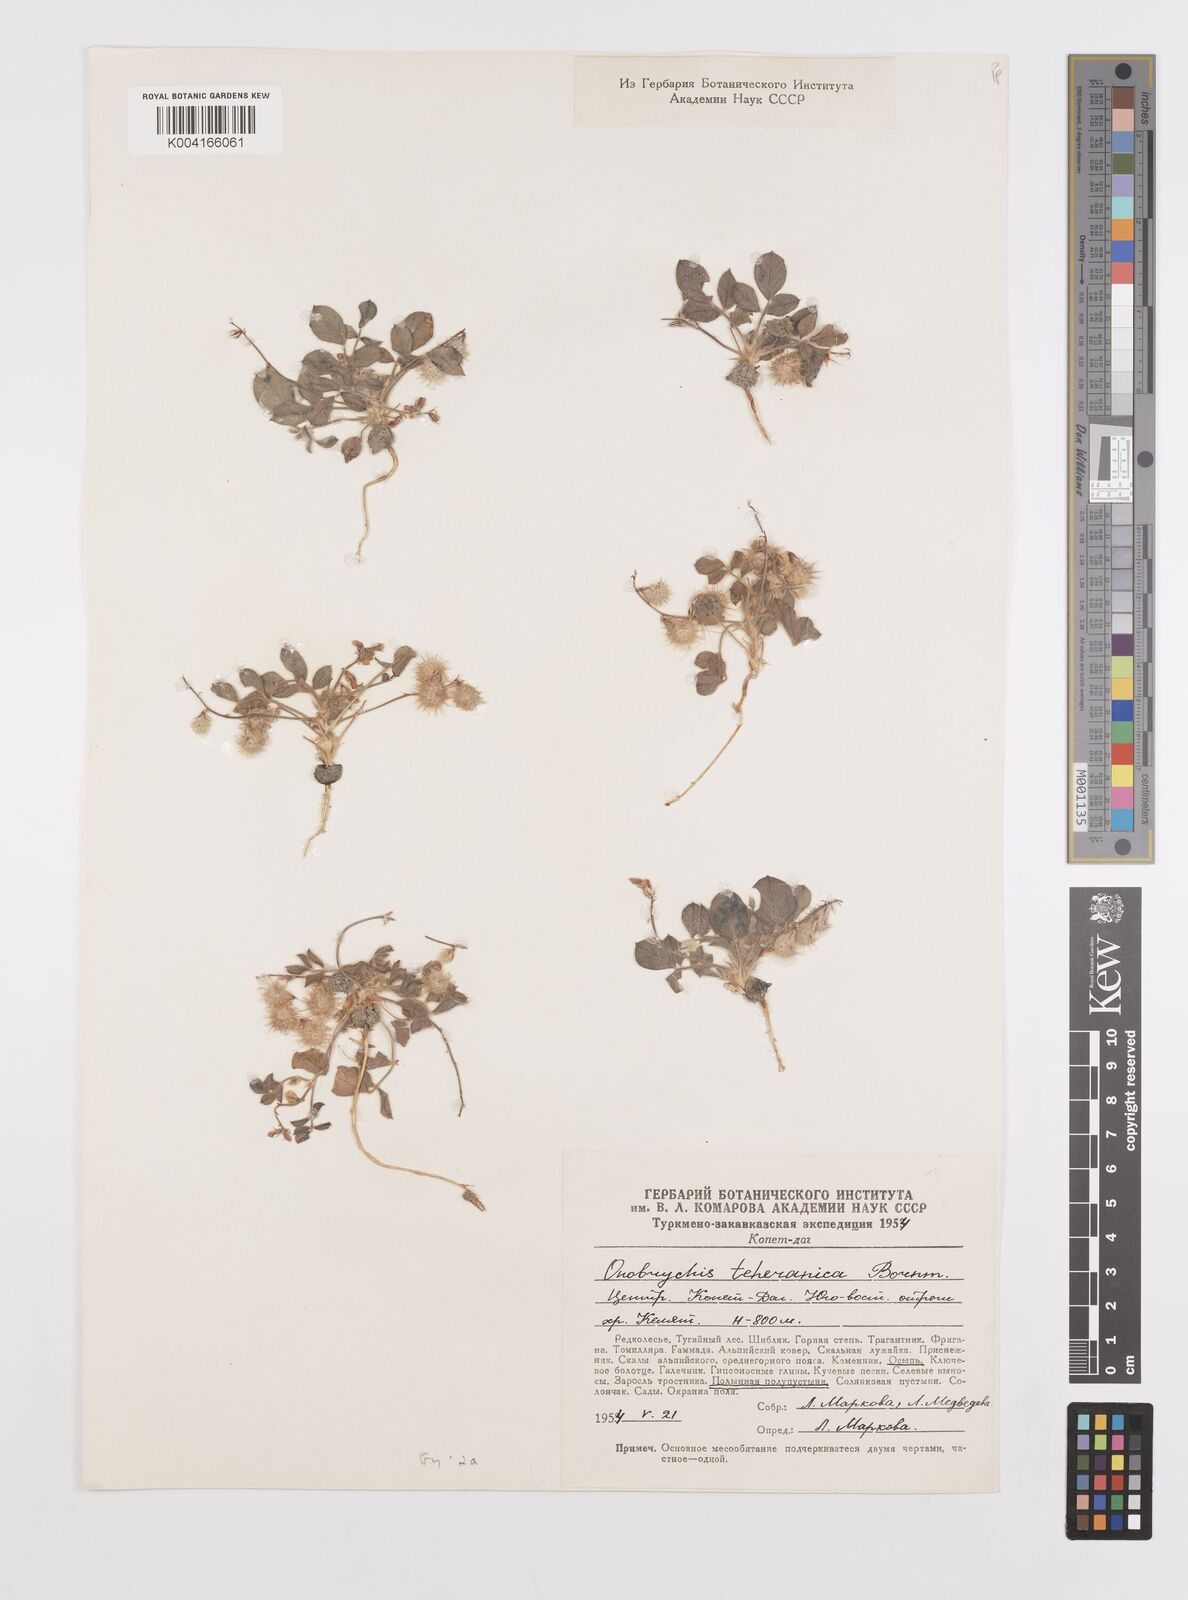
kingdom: Plantae
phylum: Tracheophyta
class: Magnoliopsida
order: Fabales
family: Fabaceae
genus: Onobrychis
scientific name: Onobrychis aucheri
